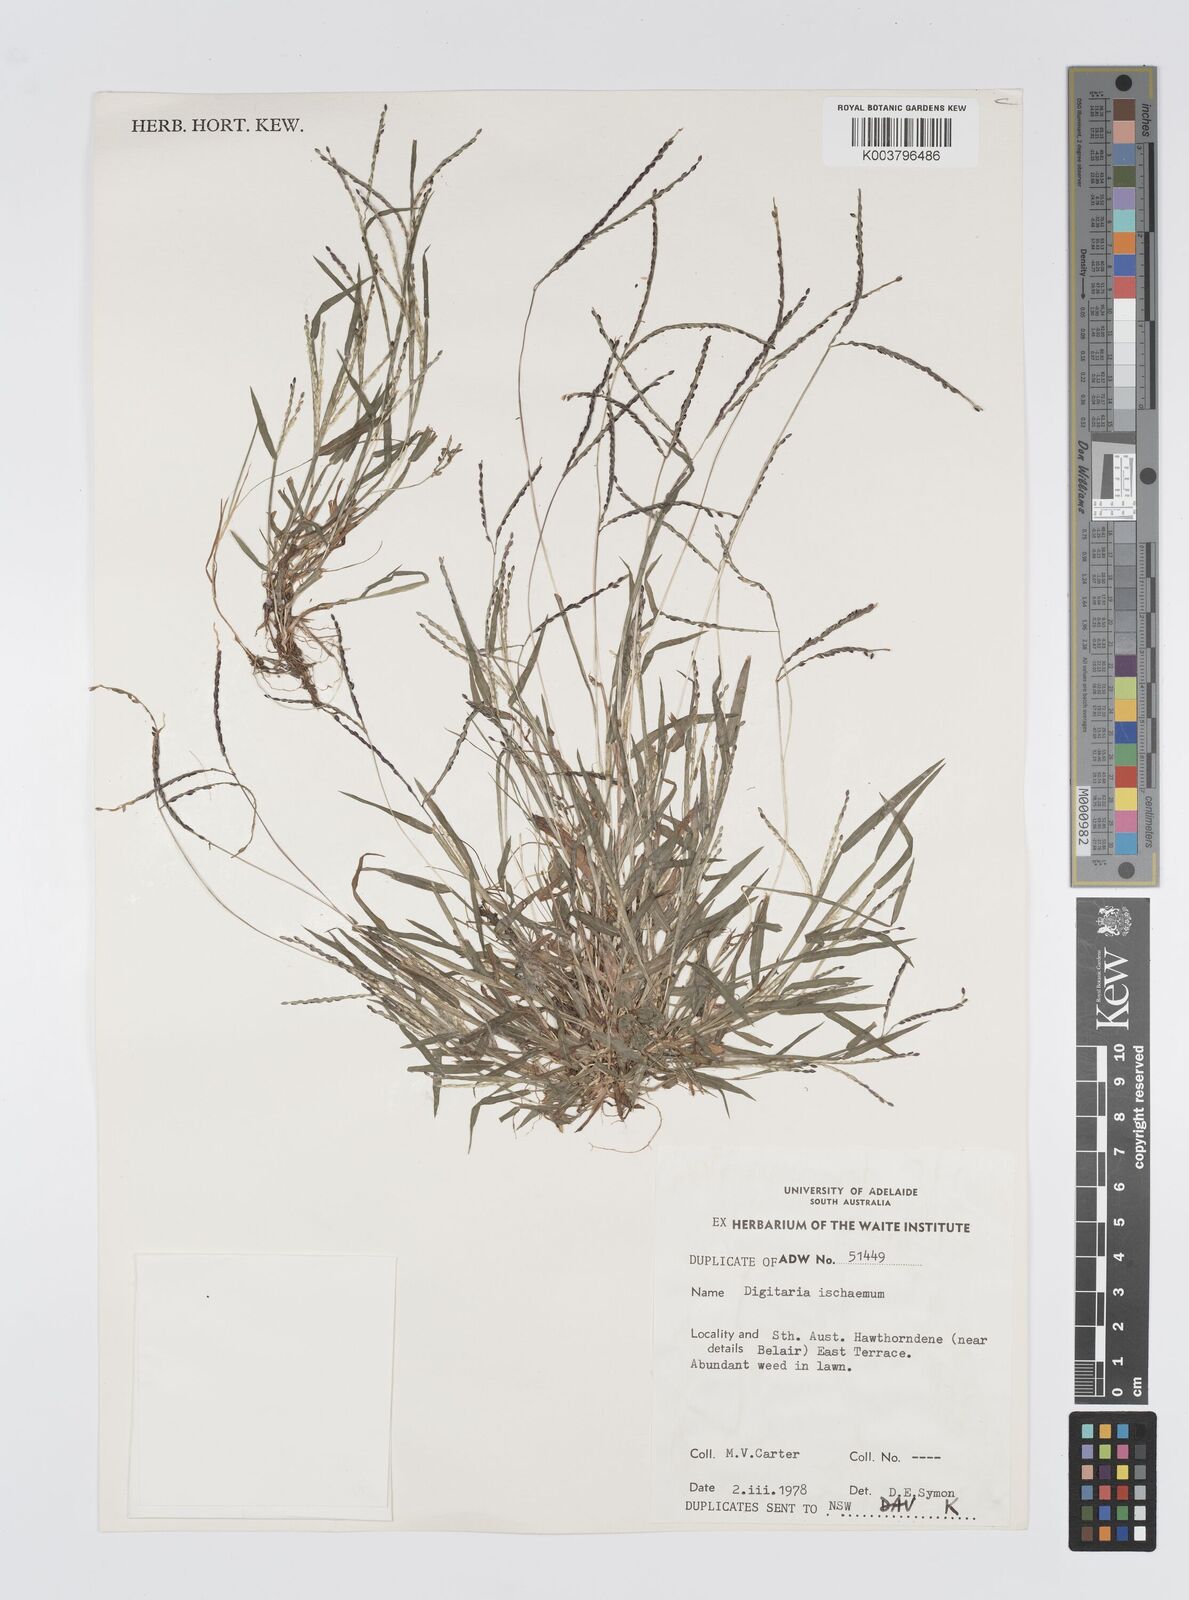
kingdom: Plantae
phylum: Tracheophyta
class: Liliopsida
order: Poales
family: Poaceae
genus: Digitaria
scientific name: Digitaria ischaemum
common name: Smooth crabgrass
